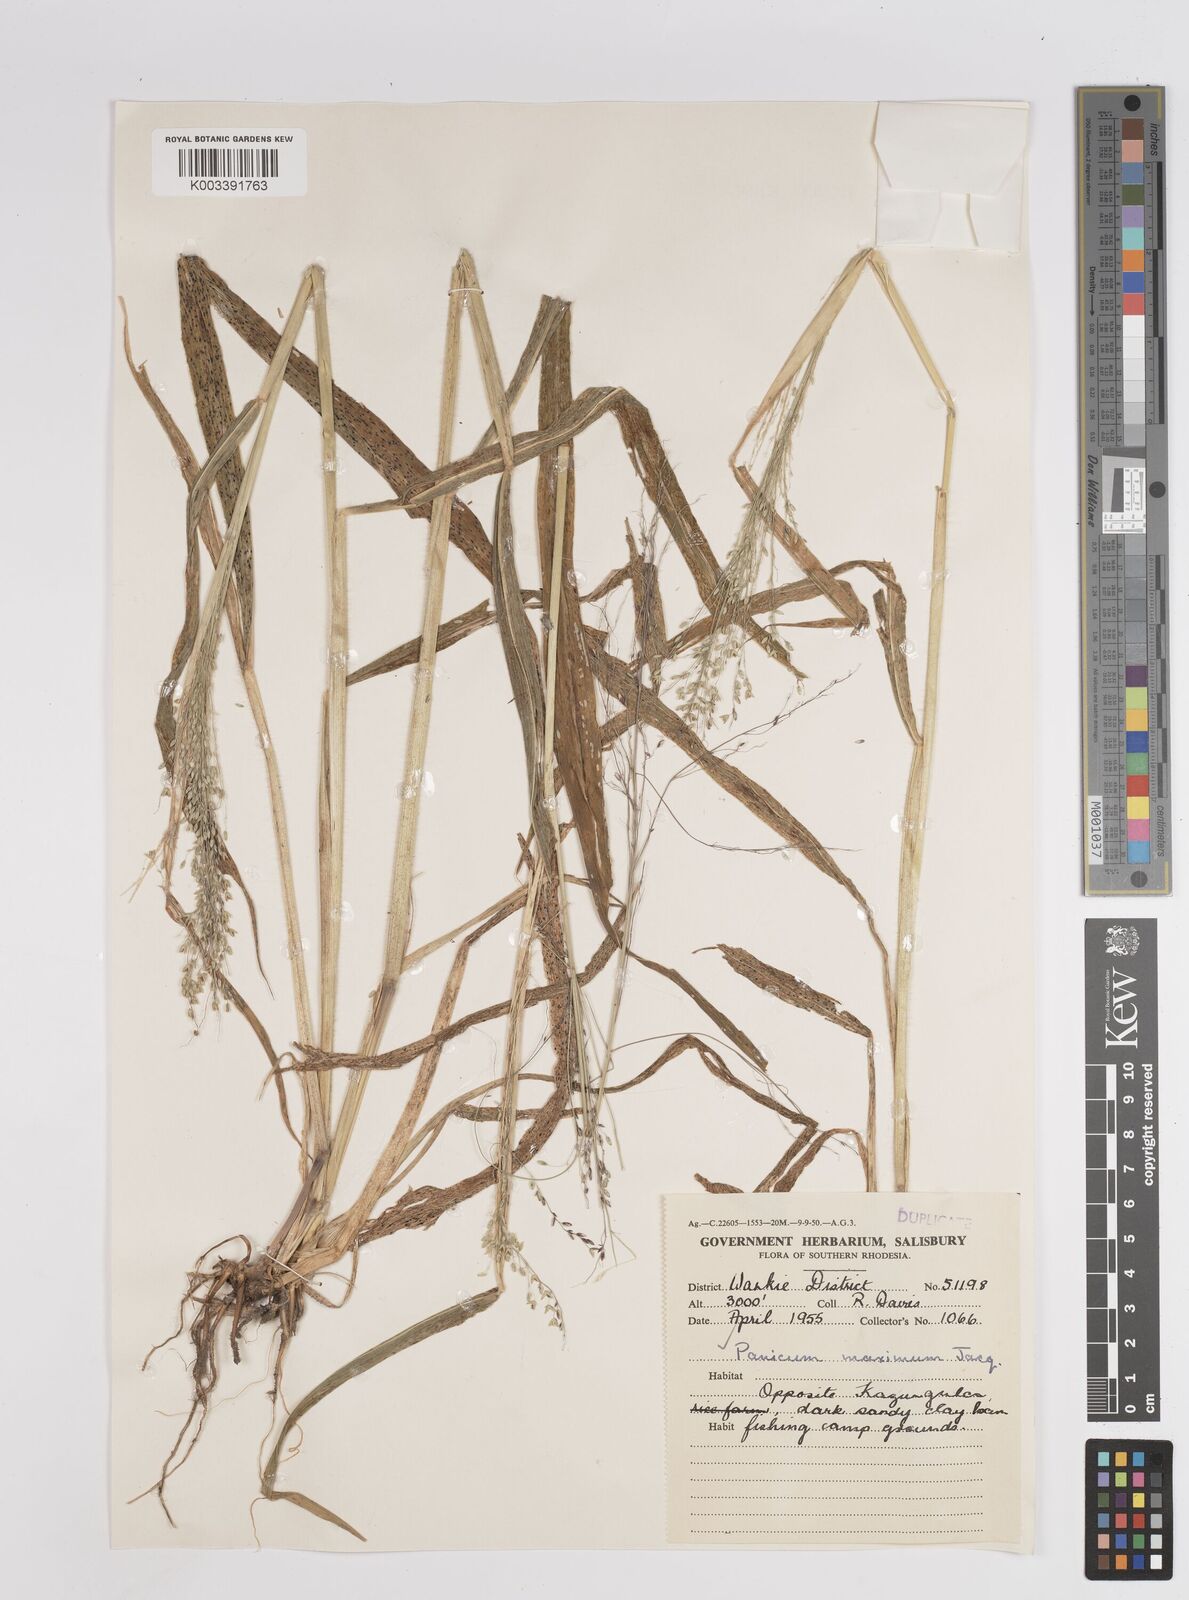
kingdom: Plantae
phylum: Tracheophyta
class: Liliopsida
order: Poales
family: Poaceae
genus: Megathyrsus
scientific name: Megathyrsus maximus
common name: Guineagrass
